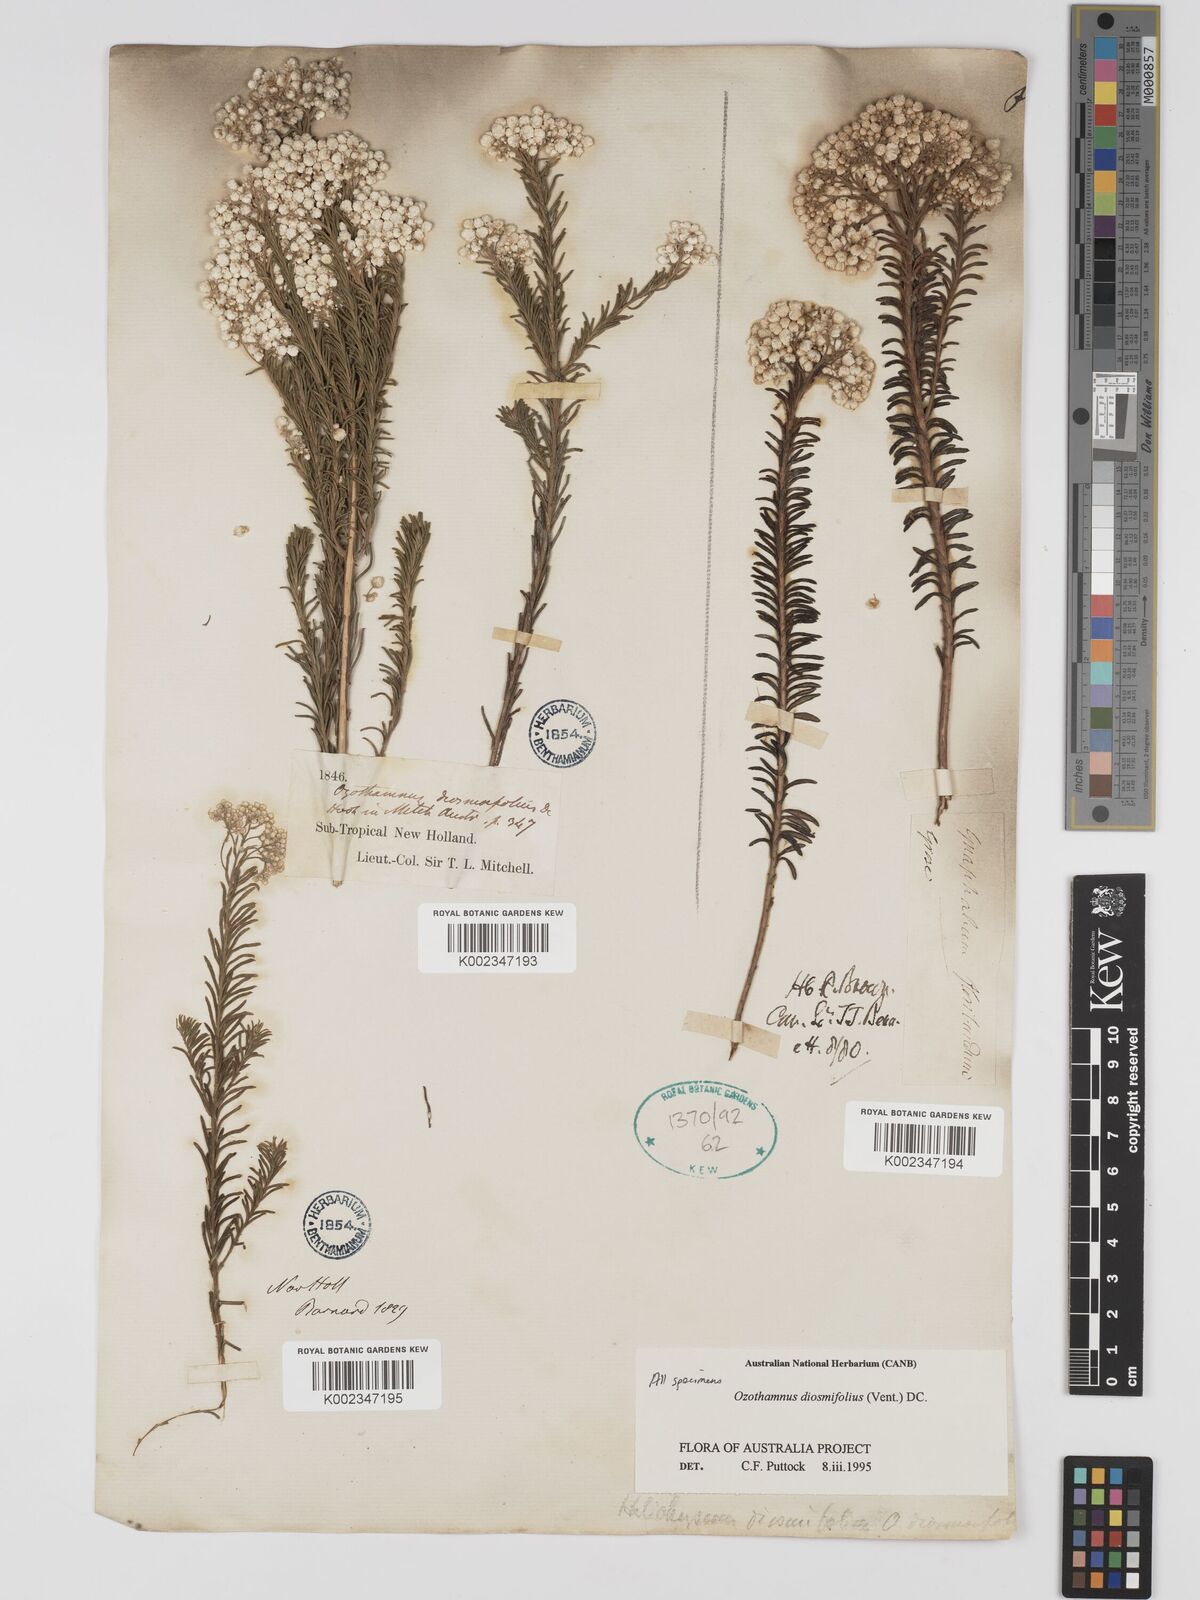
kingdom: Plantae
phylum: Tracheophyta
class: Magnoliopsida
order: Asterales
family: Asteraceae
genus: Ozothamnus
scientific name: Ozothamnus diosmifolius
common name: White-dogwood
